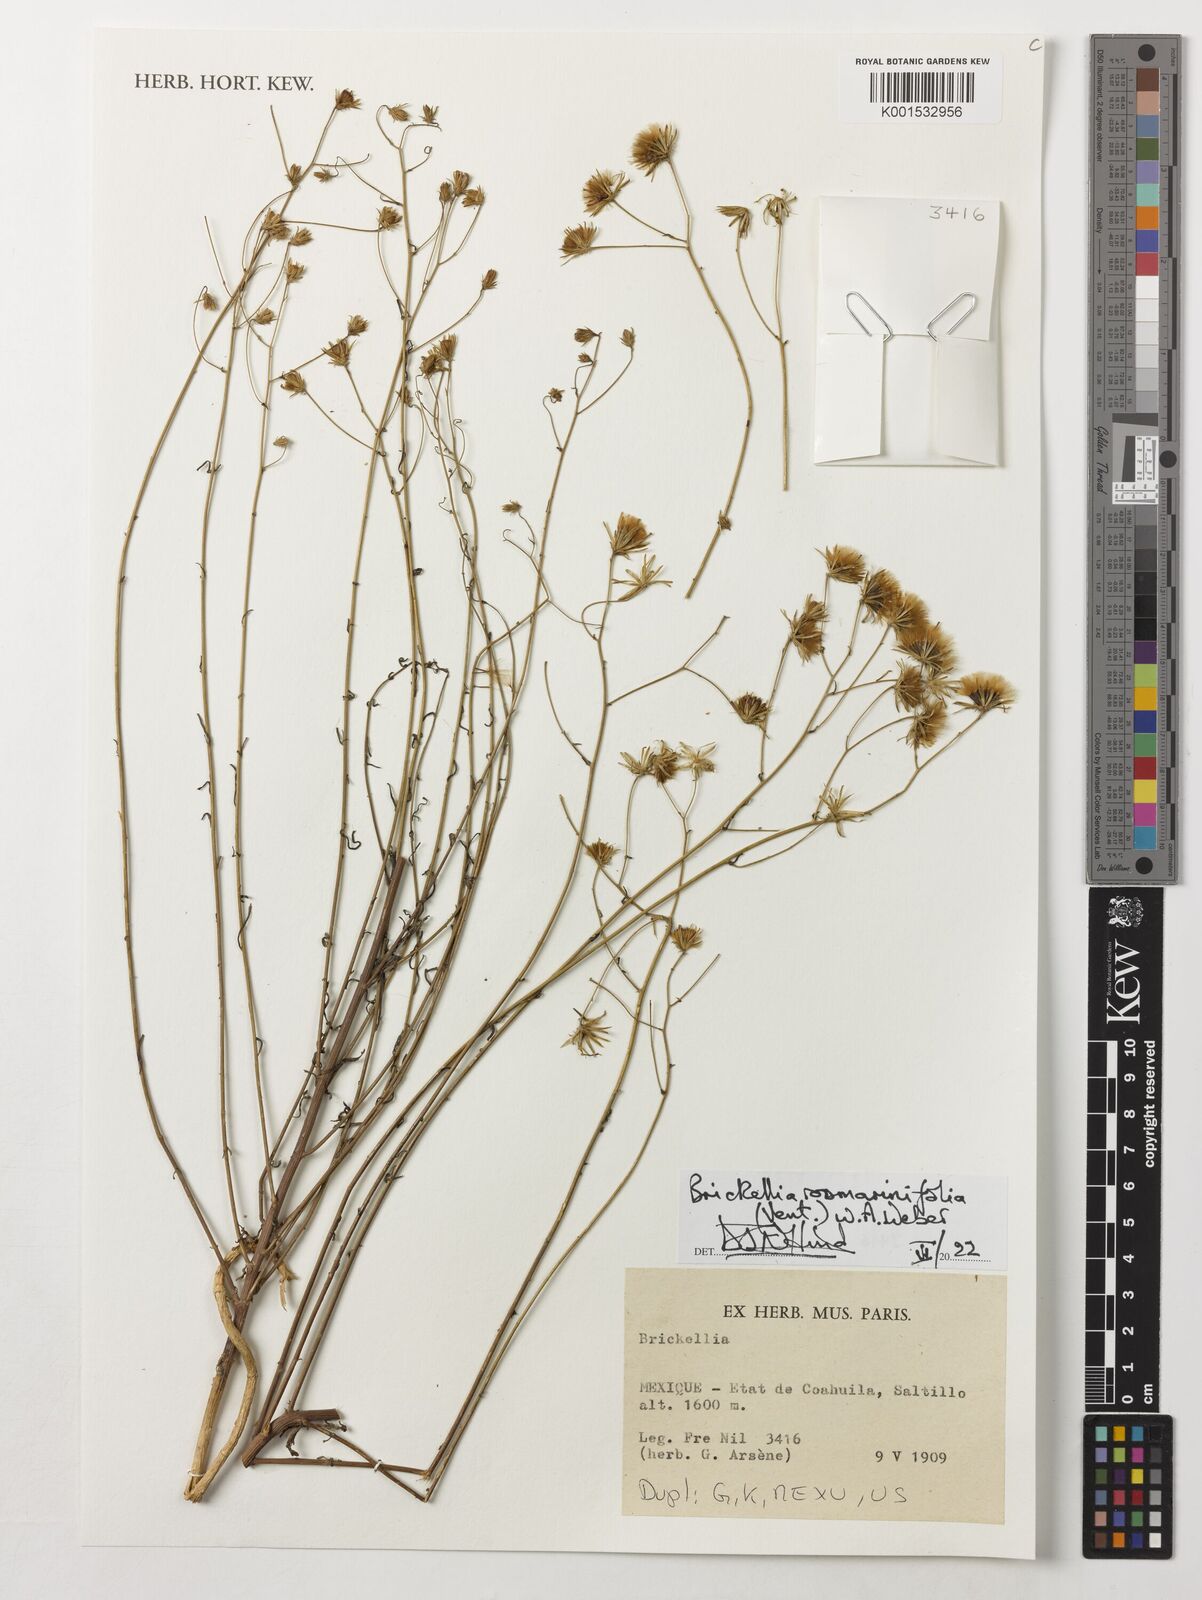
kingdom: Plantae
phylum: Tracheophyta
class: Magnoliopsida
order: Asterales
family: Asteraceae
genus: Brickellia
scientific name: Brickellia rosmarinifolia
